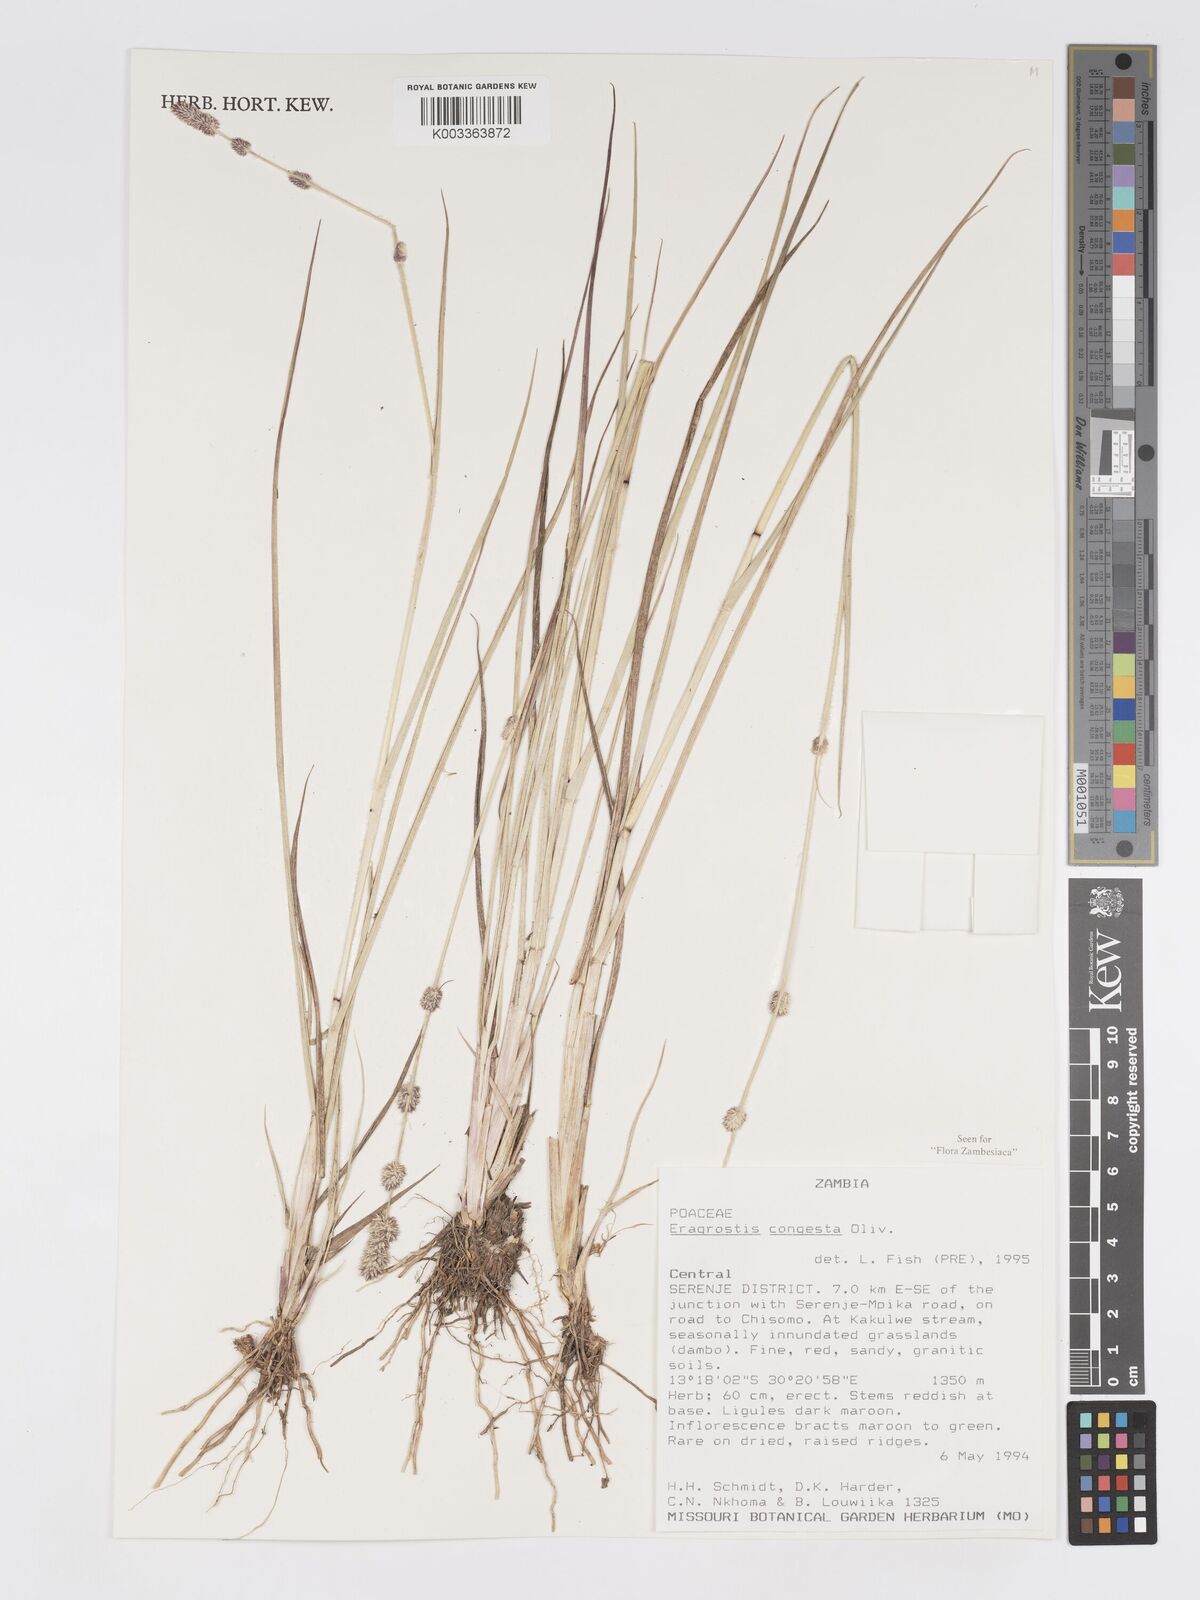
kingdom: Plantae
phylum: Tracheophyta
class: Liliopsida
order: Poales
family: Poaceae
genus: Eragrostis
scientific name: Eragrostis congesta
